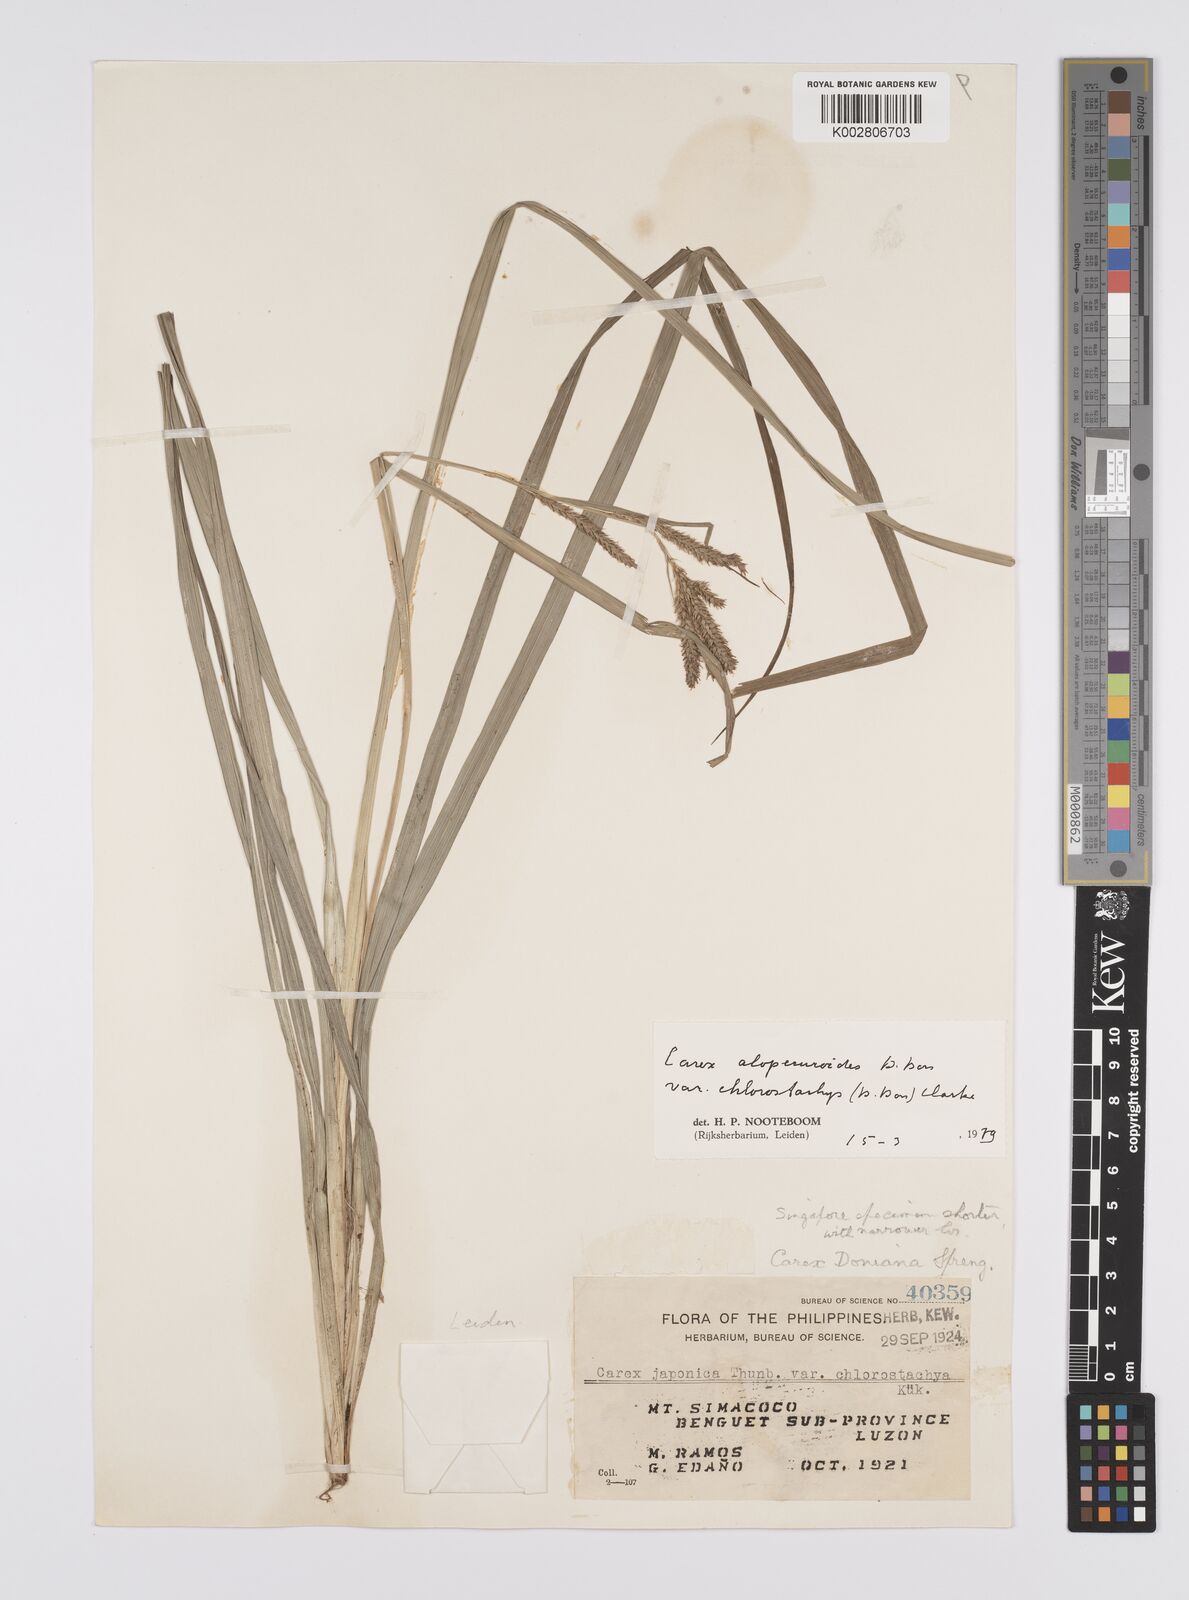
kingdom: Plantae
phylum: Tracheophyta
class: Liliopsida
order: Poales
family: Cyperaceae
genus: Carex
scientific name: Carex alopecuroides
